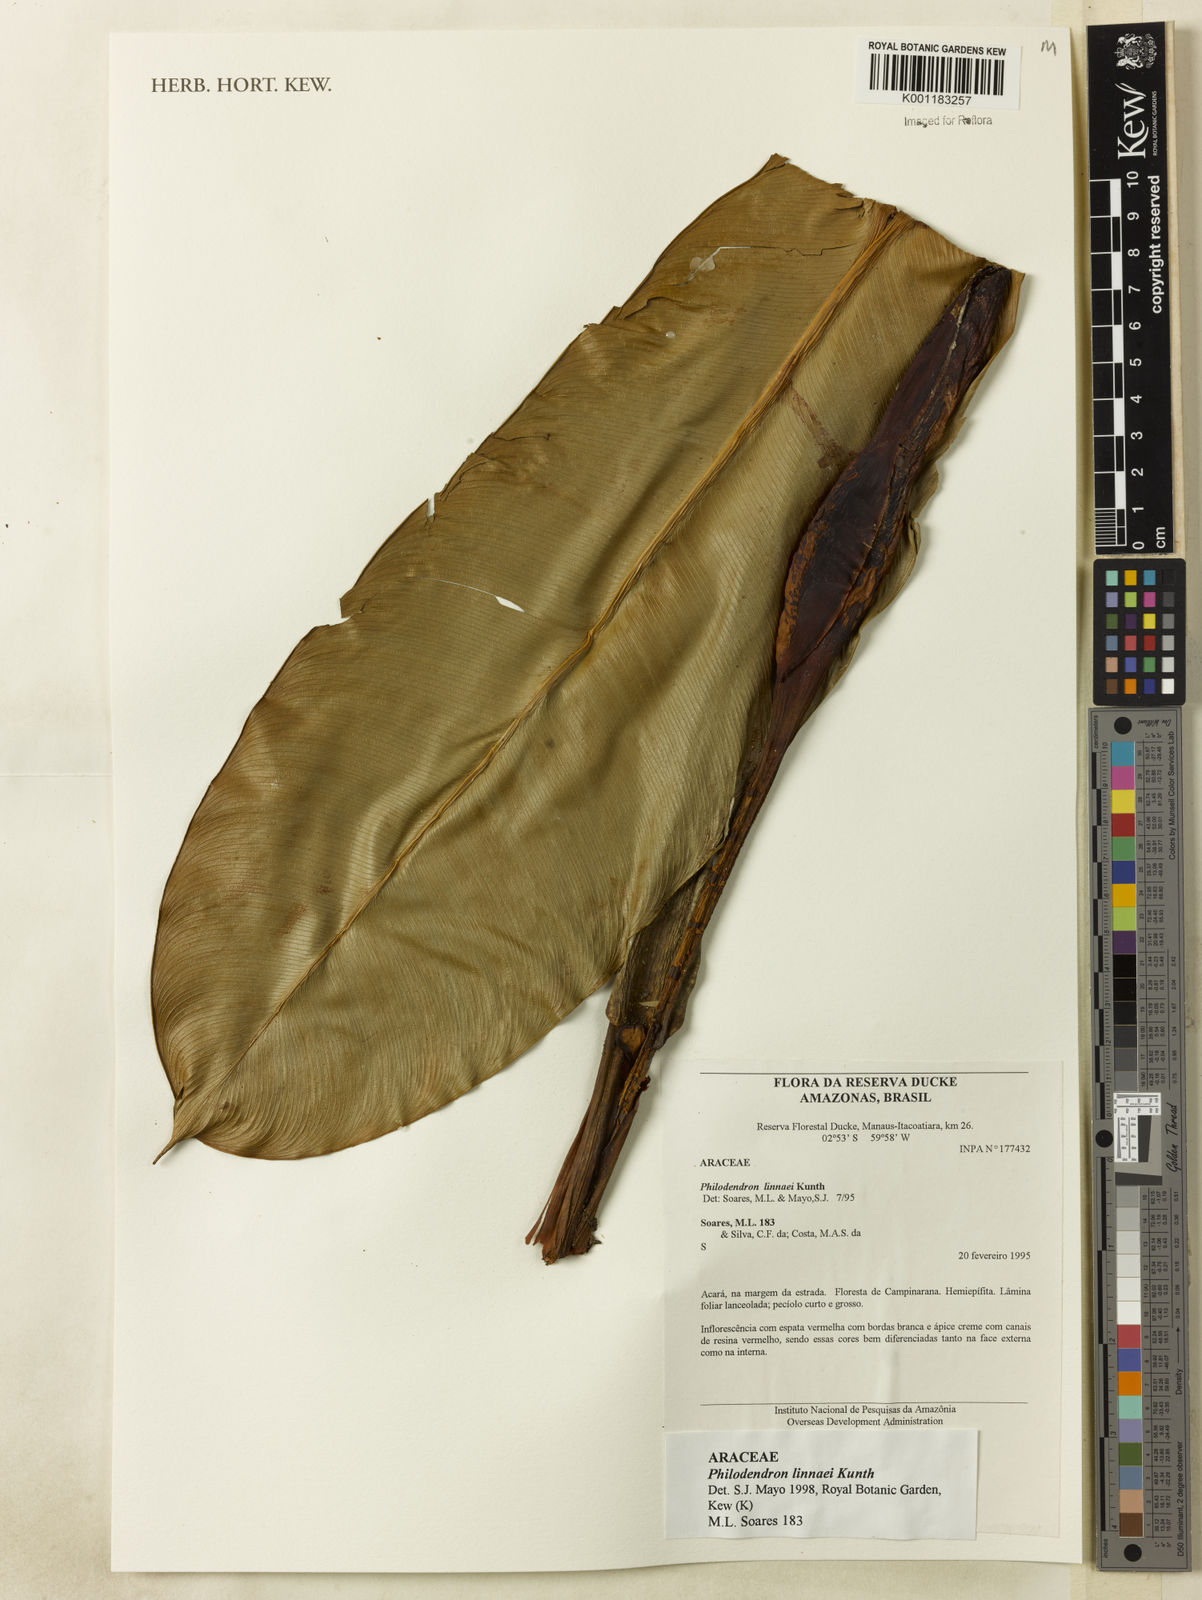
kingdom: Plantae
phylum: Tracheophyta
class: Liliopsida
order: Alismatales
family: Araceae
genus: Philodendron
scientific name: Philodendron linnaei
